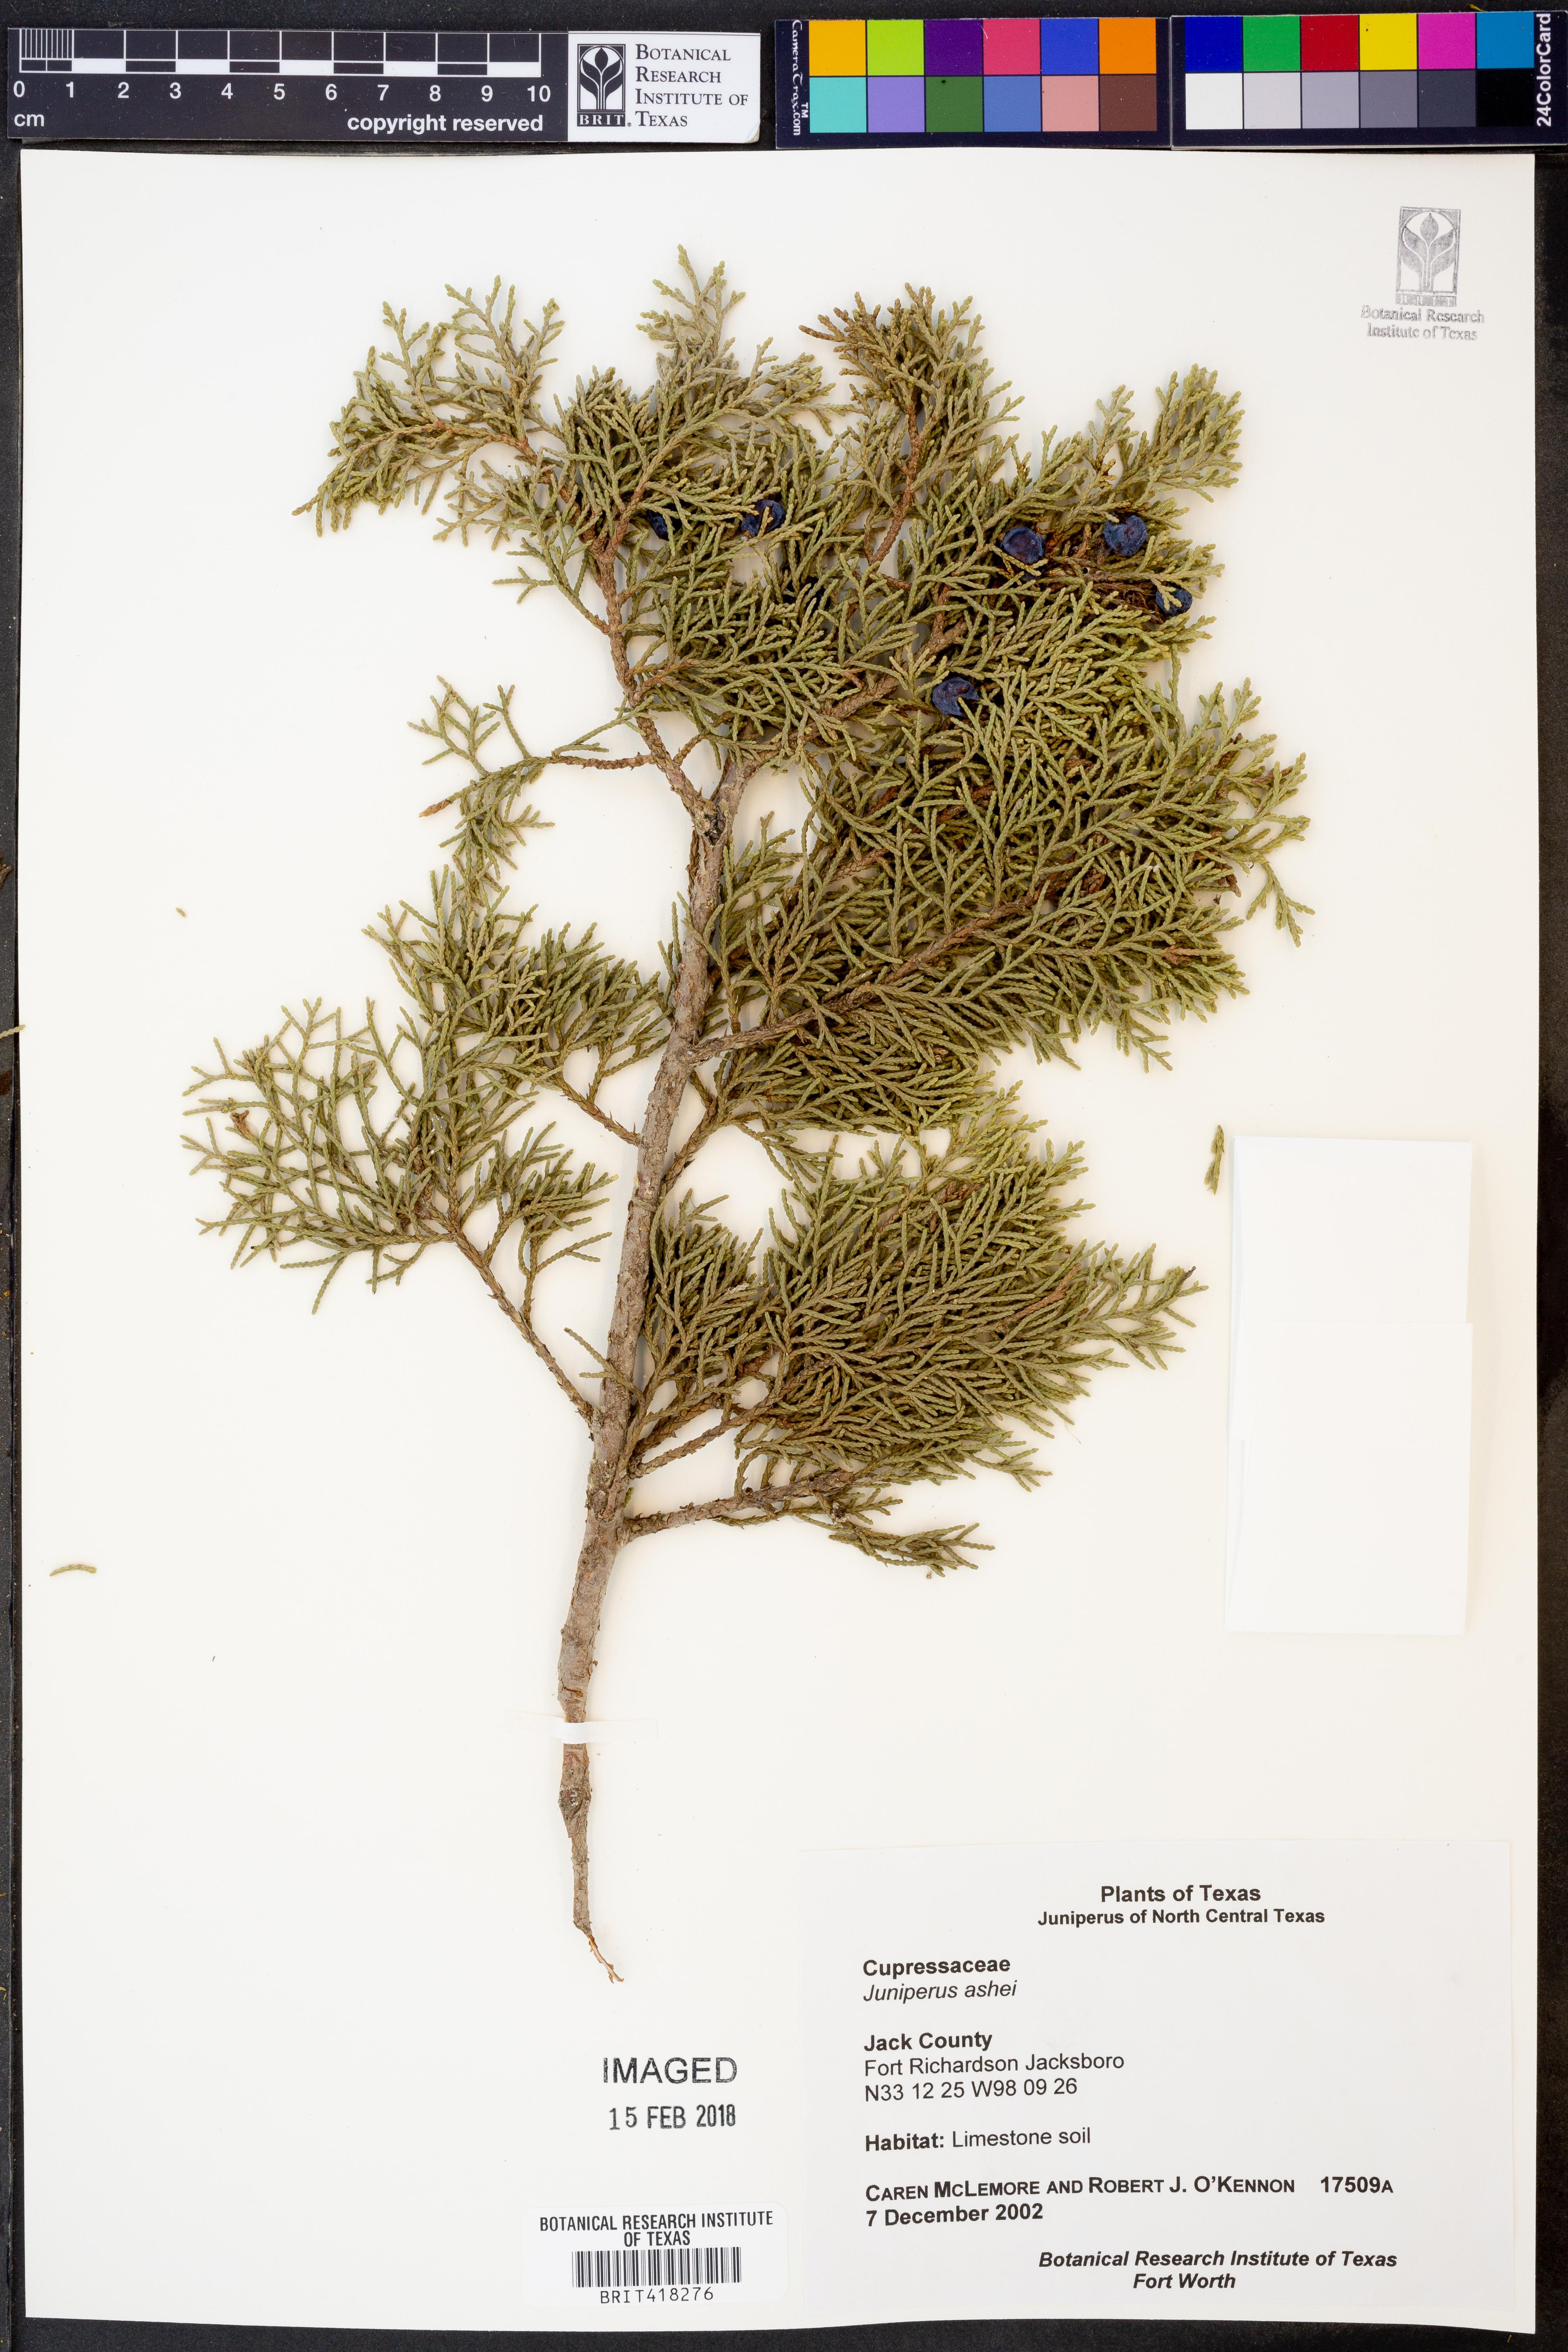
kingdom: Plantae
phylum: Tracheophyta
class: Pinopsida
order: Pinales
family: Cupressaceae
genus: Juniperus
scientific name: Juniperus ashei
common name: Mexican juniper
